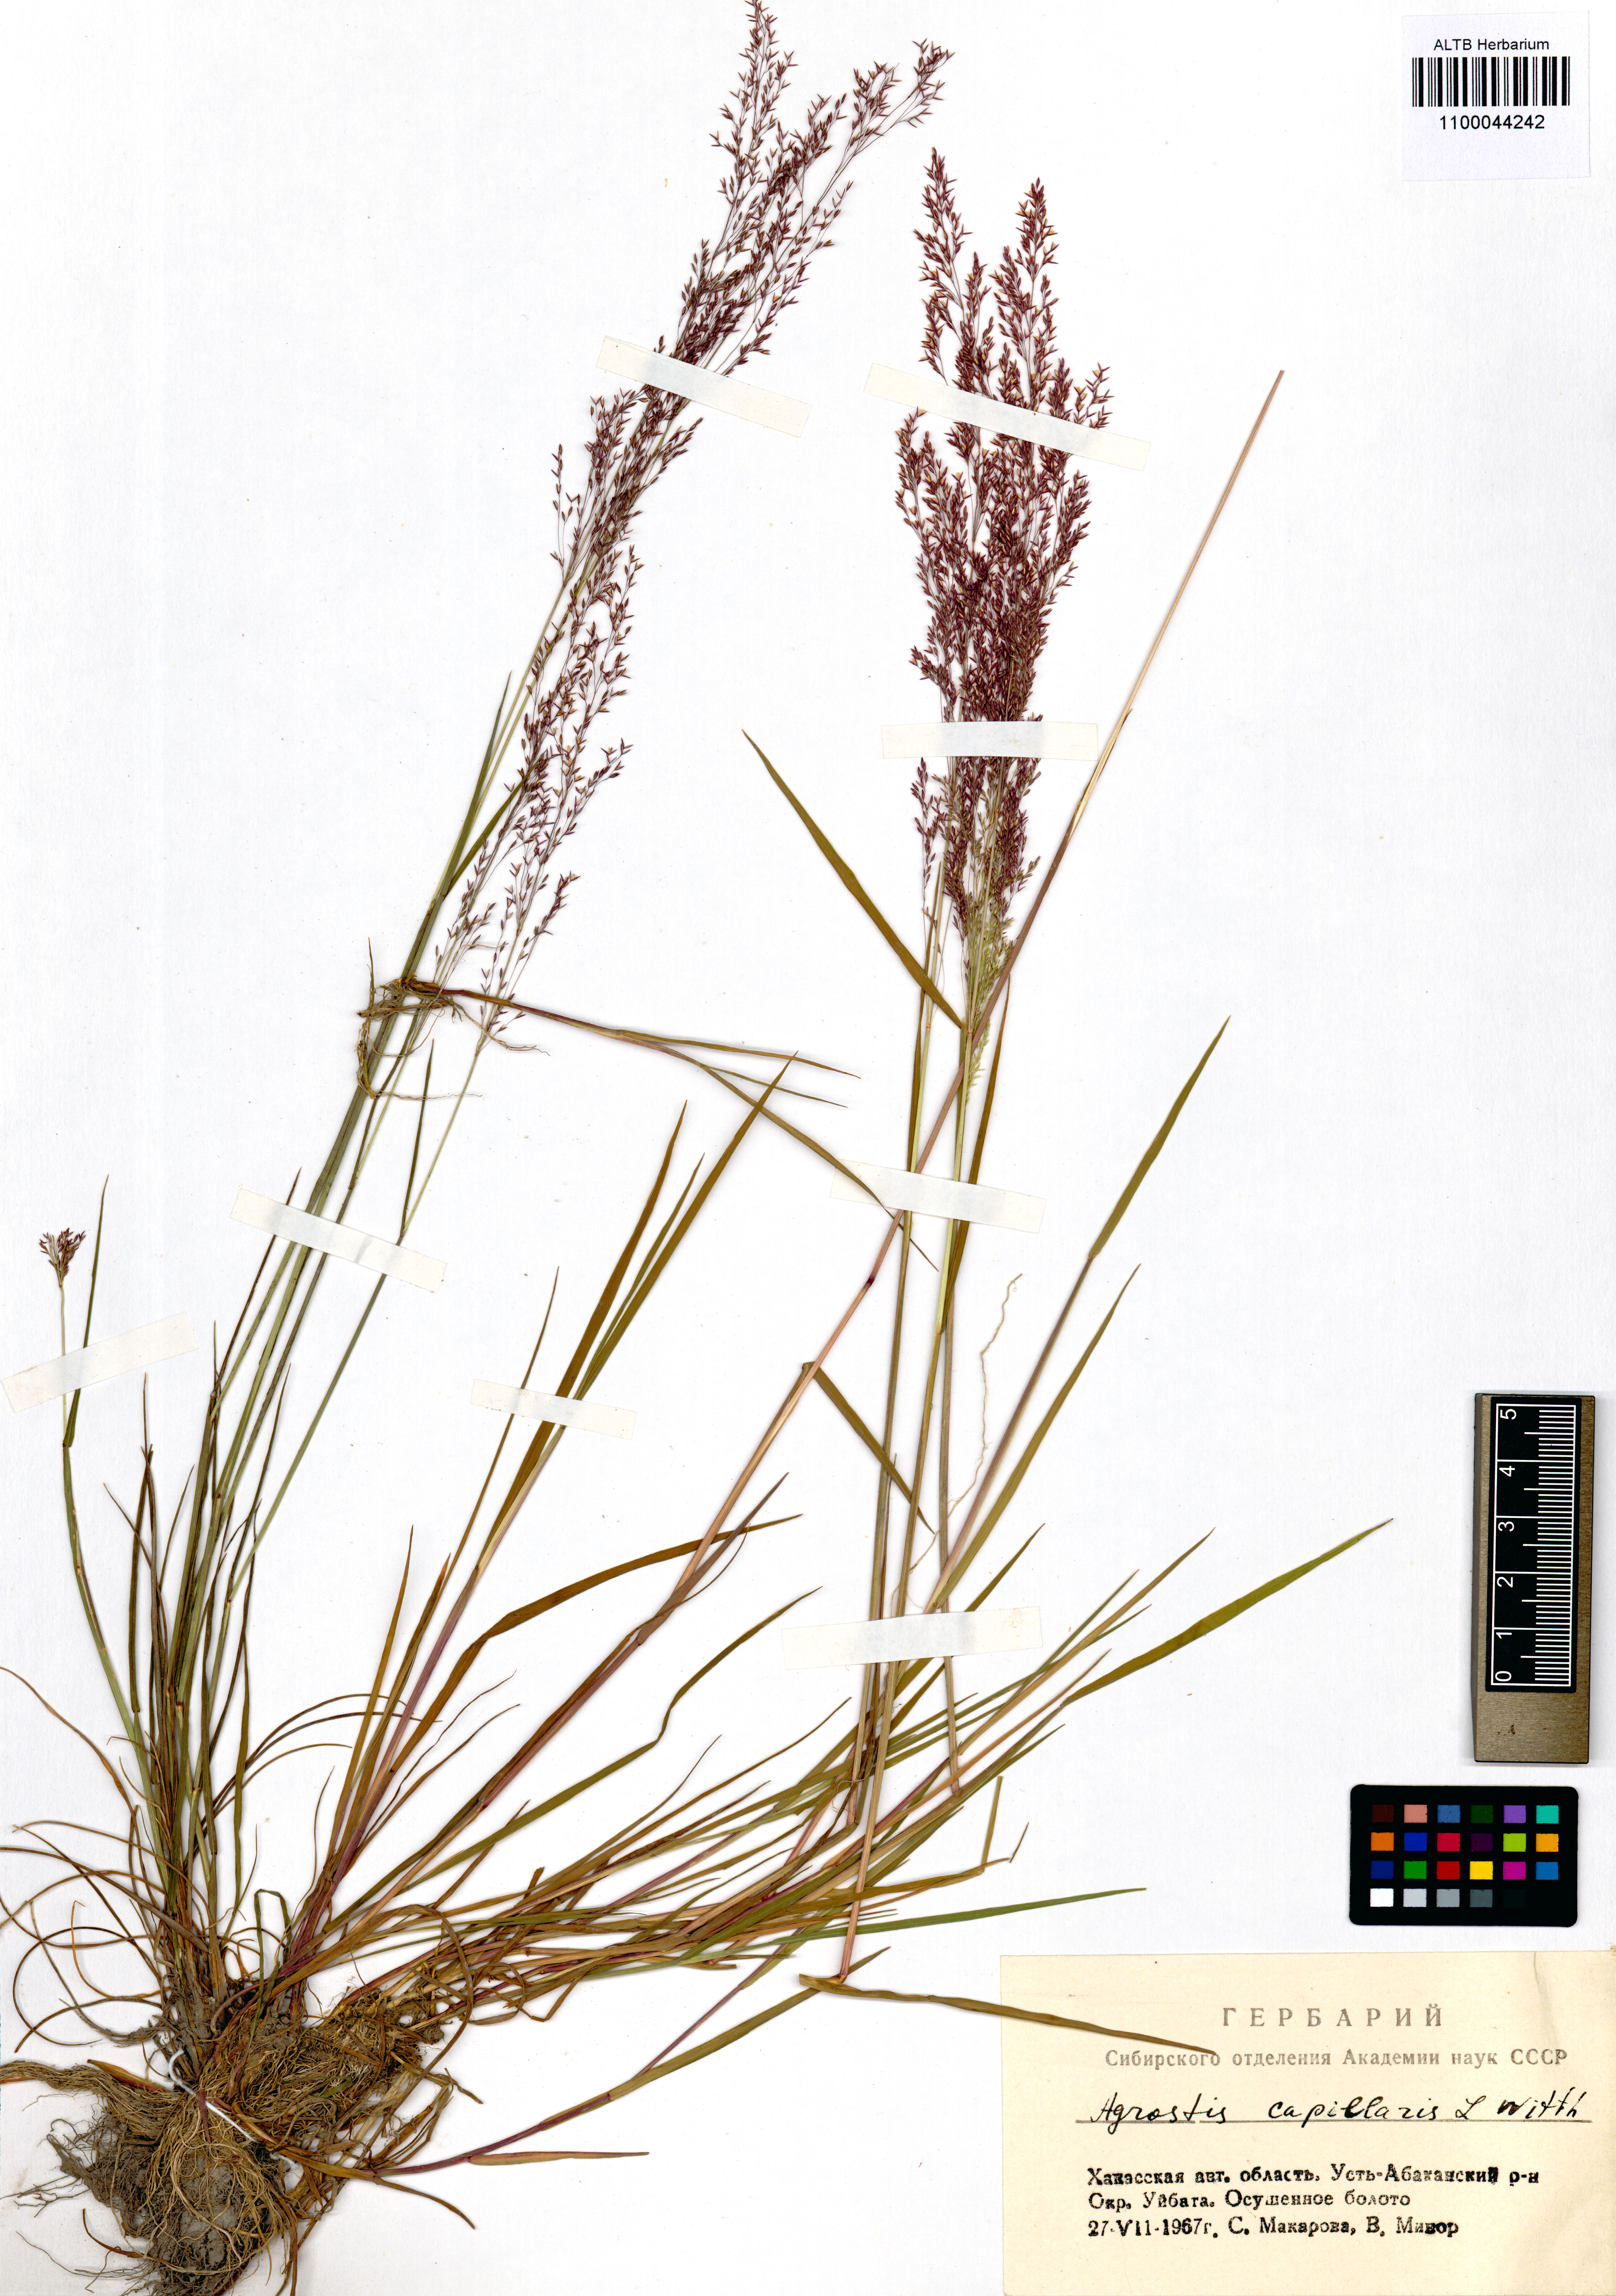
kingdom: Plantae
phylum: Tracheophyta
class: Liliopsida
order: Poales
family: Poaceae
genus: Agrostis
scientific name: Agrostis capillaris
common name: Colonial bentgrass
